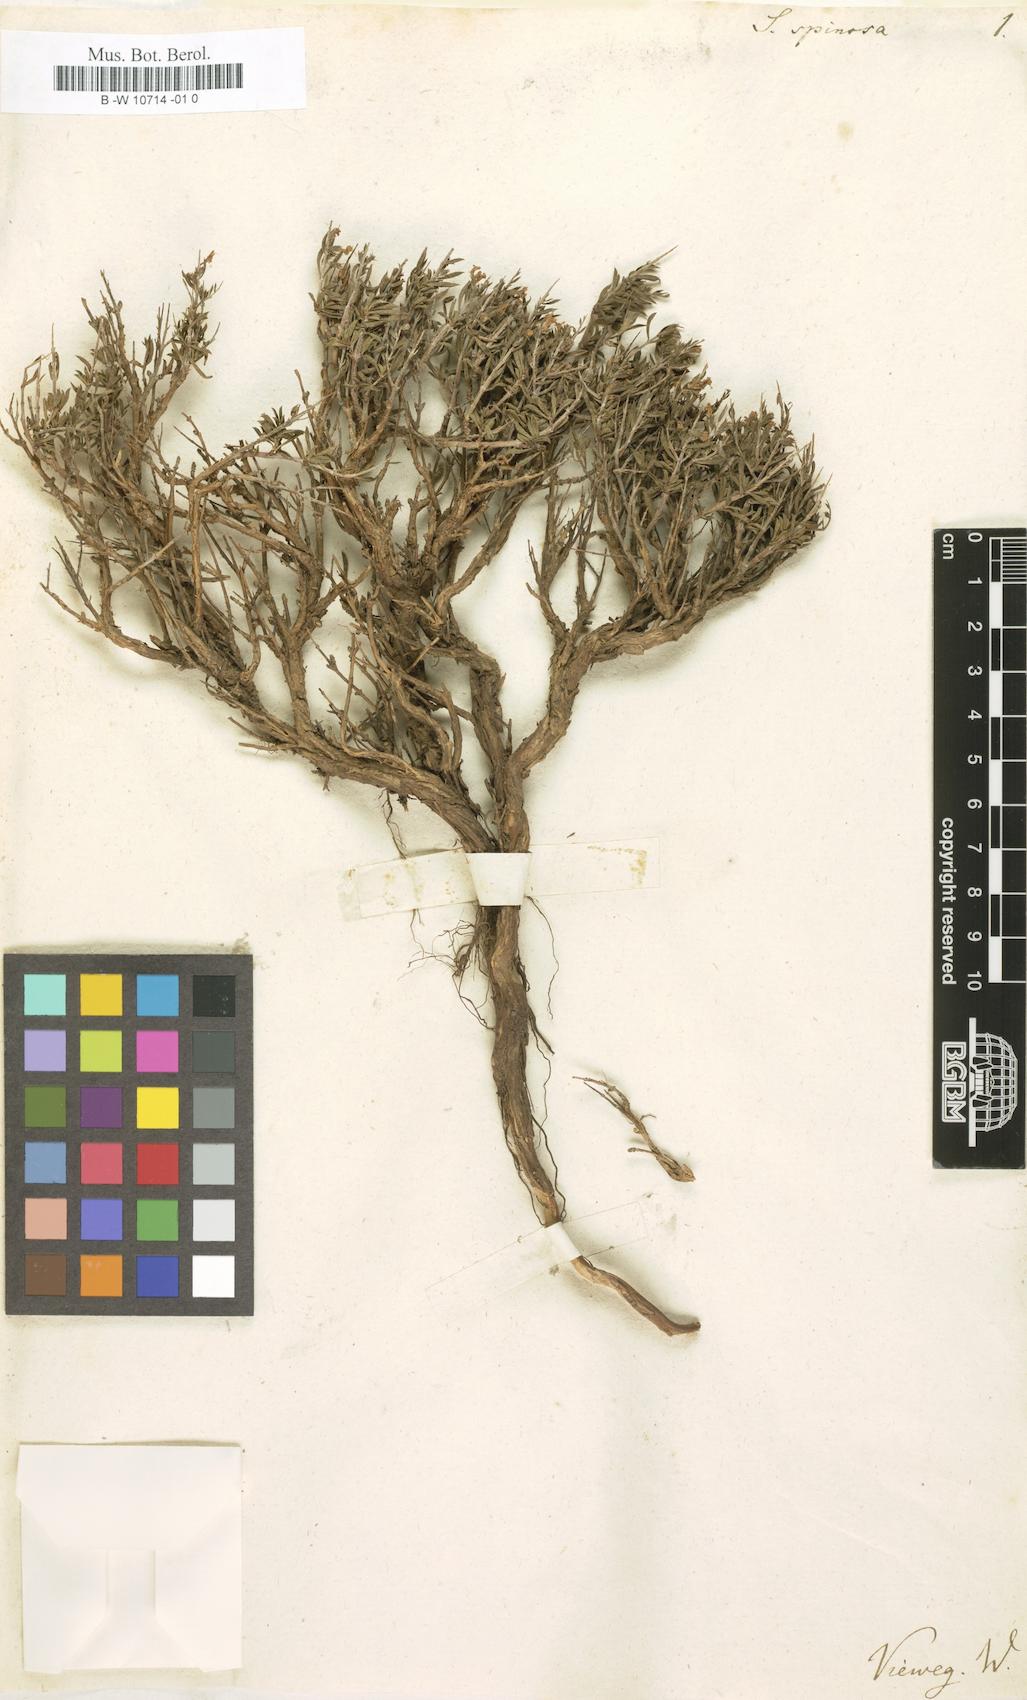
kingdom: Plantae
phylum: Tracheophyta
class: Magnoliopsida
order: Lamiales
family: Lamiaceae
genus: Satureja
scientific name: Satureja spinosa
